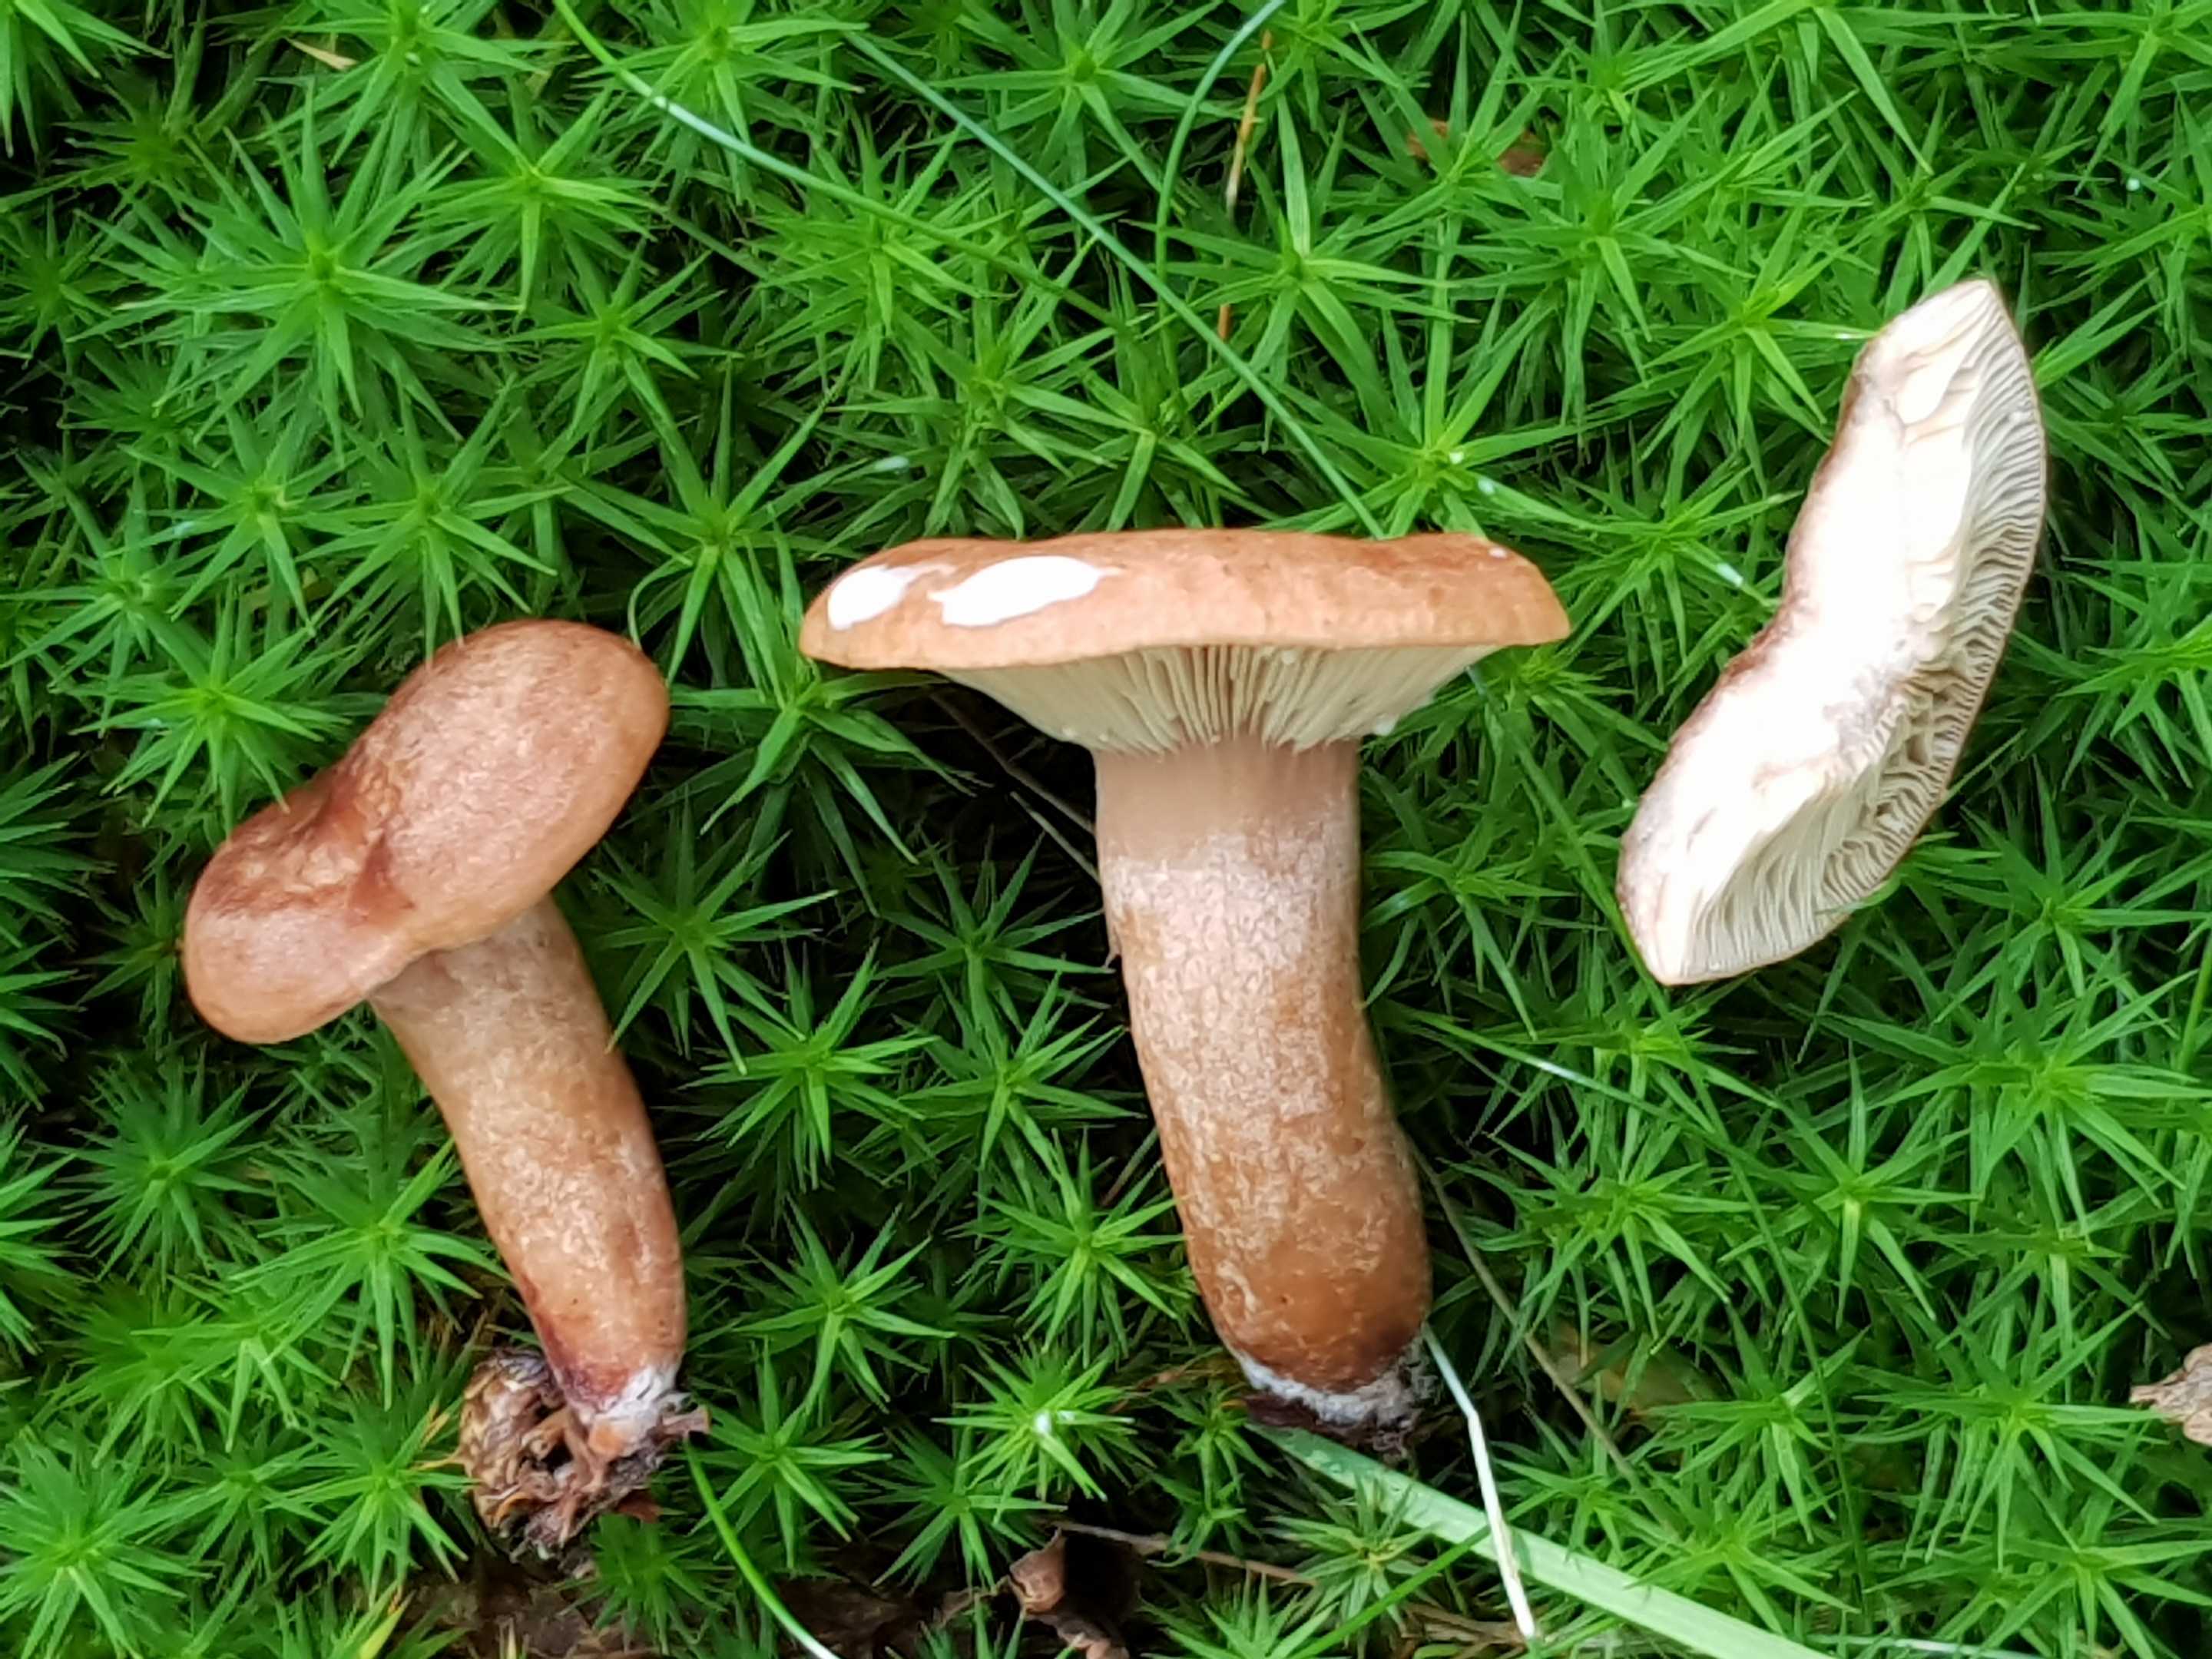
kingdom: Fungi
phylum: Basidiomycota
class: Agaricomycetes
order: Russulales
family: Russulaceae
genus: Lactarius
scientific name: Lactarius quietus
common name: ege-mælkehat
